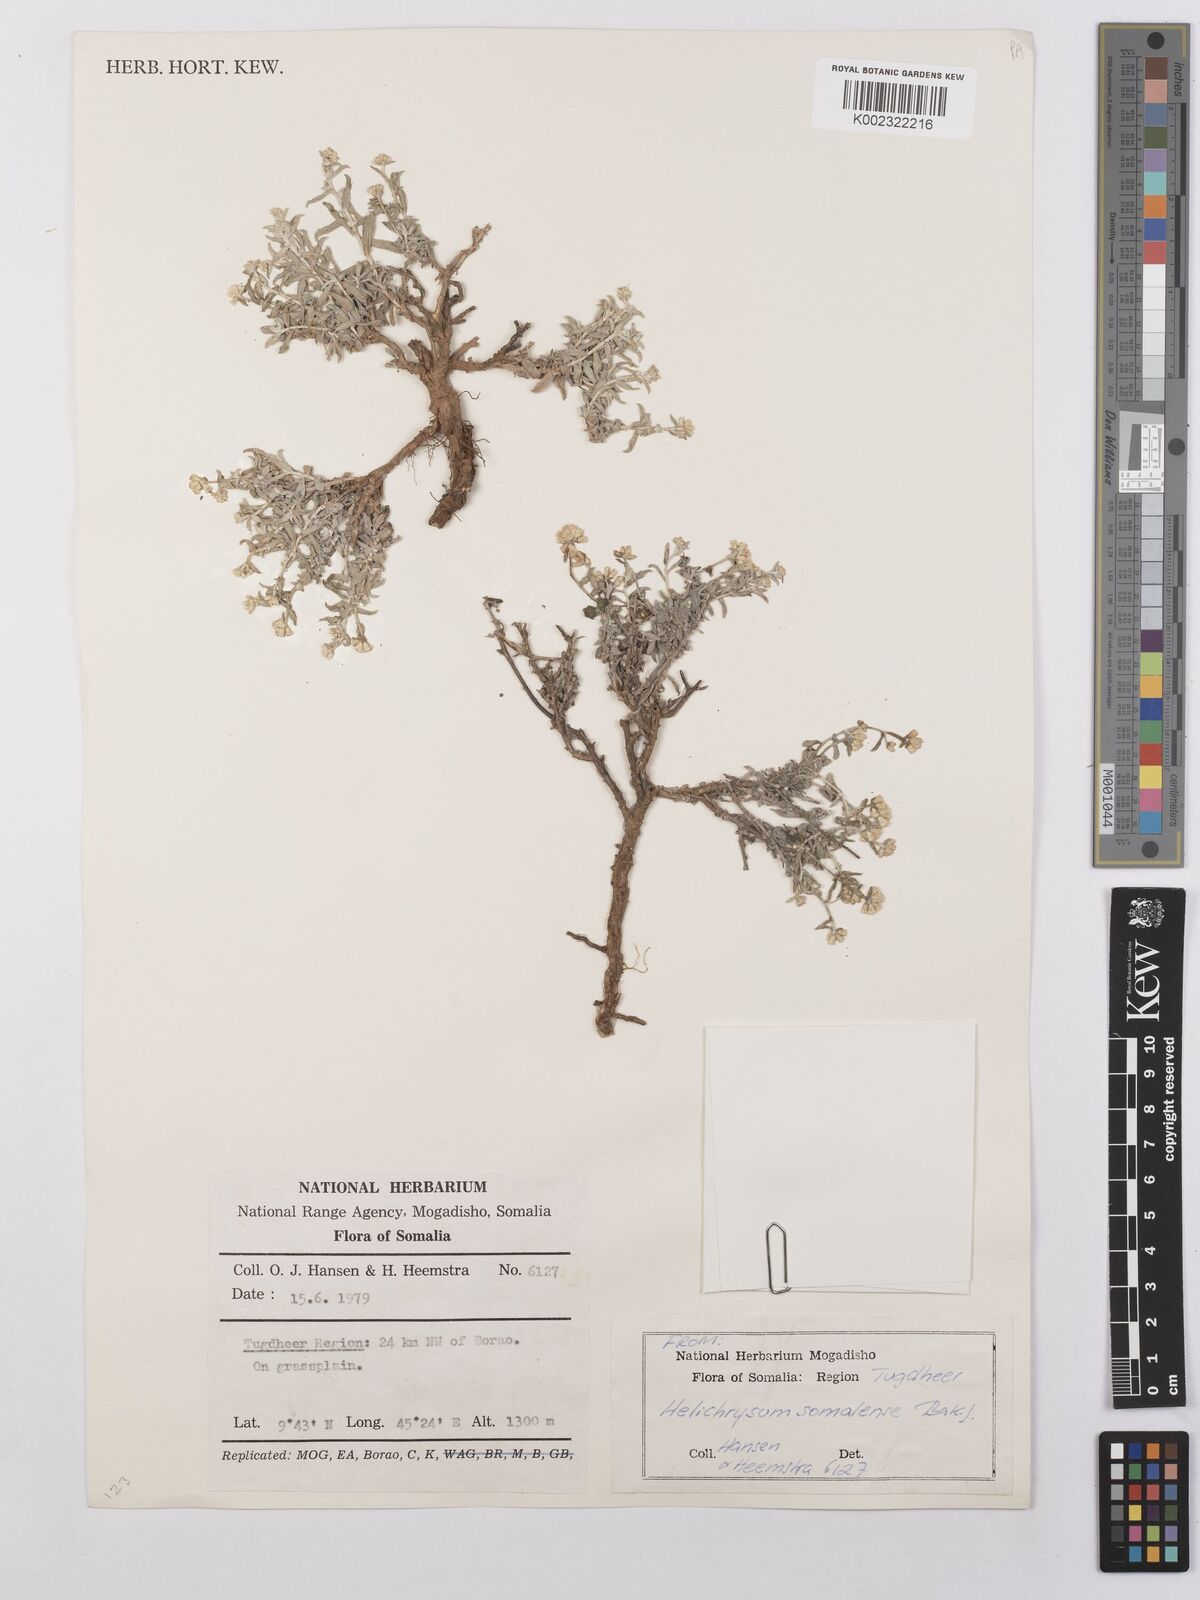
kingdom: Plantae
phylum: Tracheophyta
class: Magnoliopsida
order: Asterales
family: Asteraceae
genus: Helichrysum
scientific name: Helichrysum pumilum
